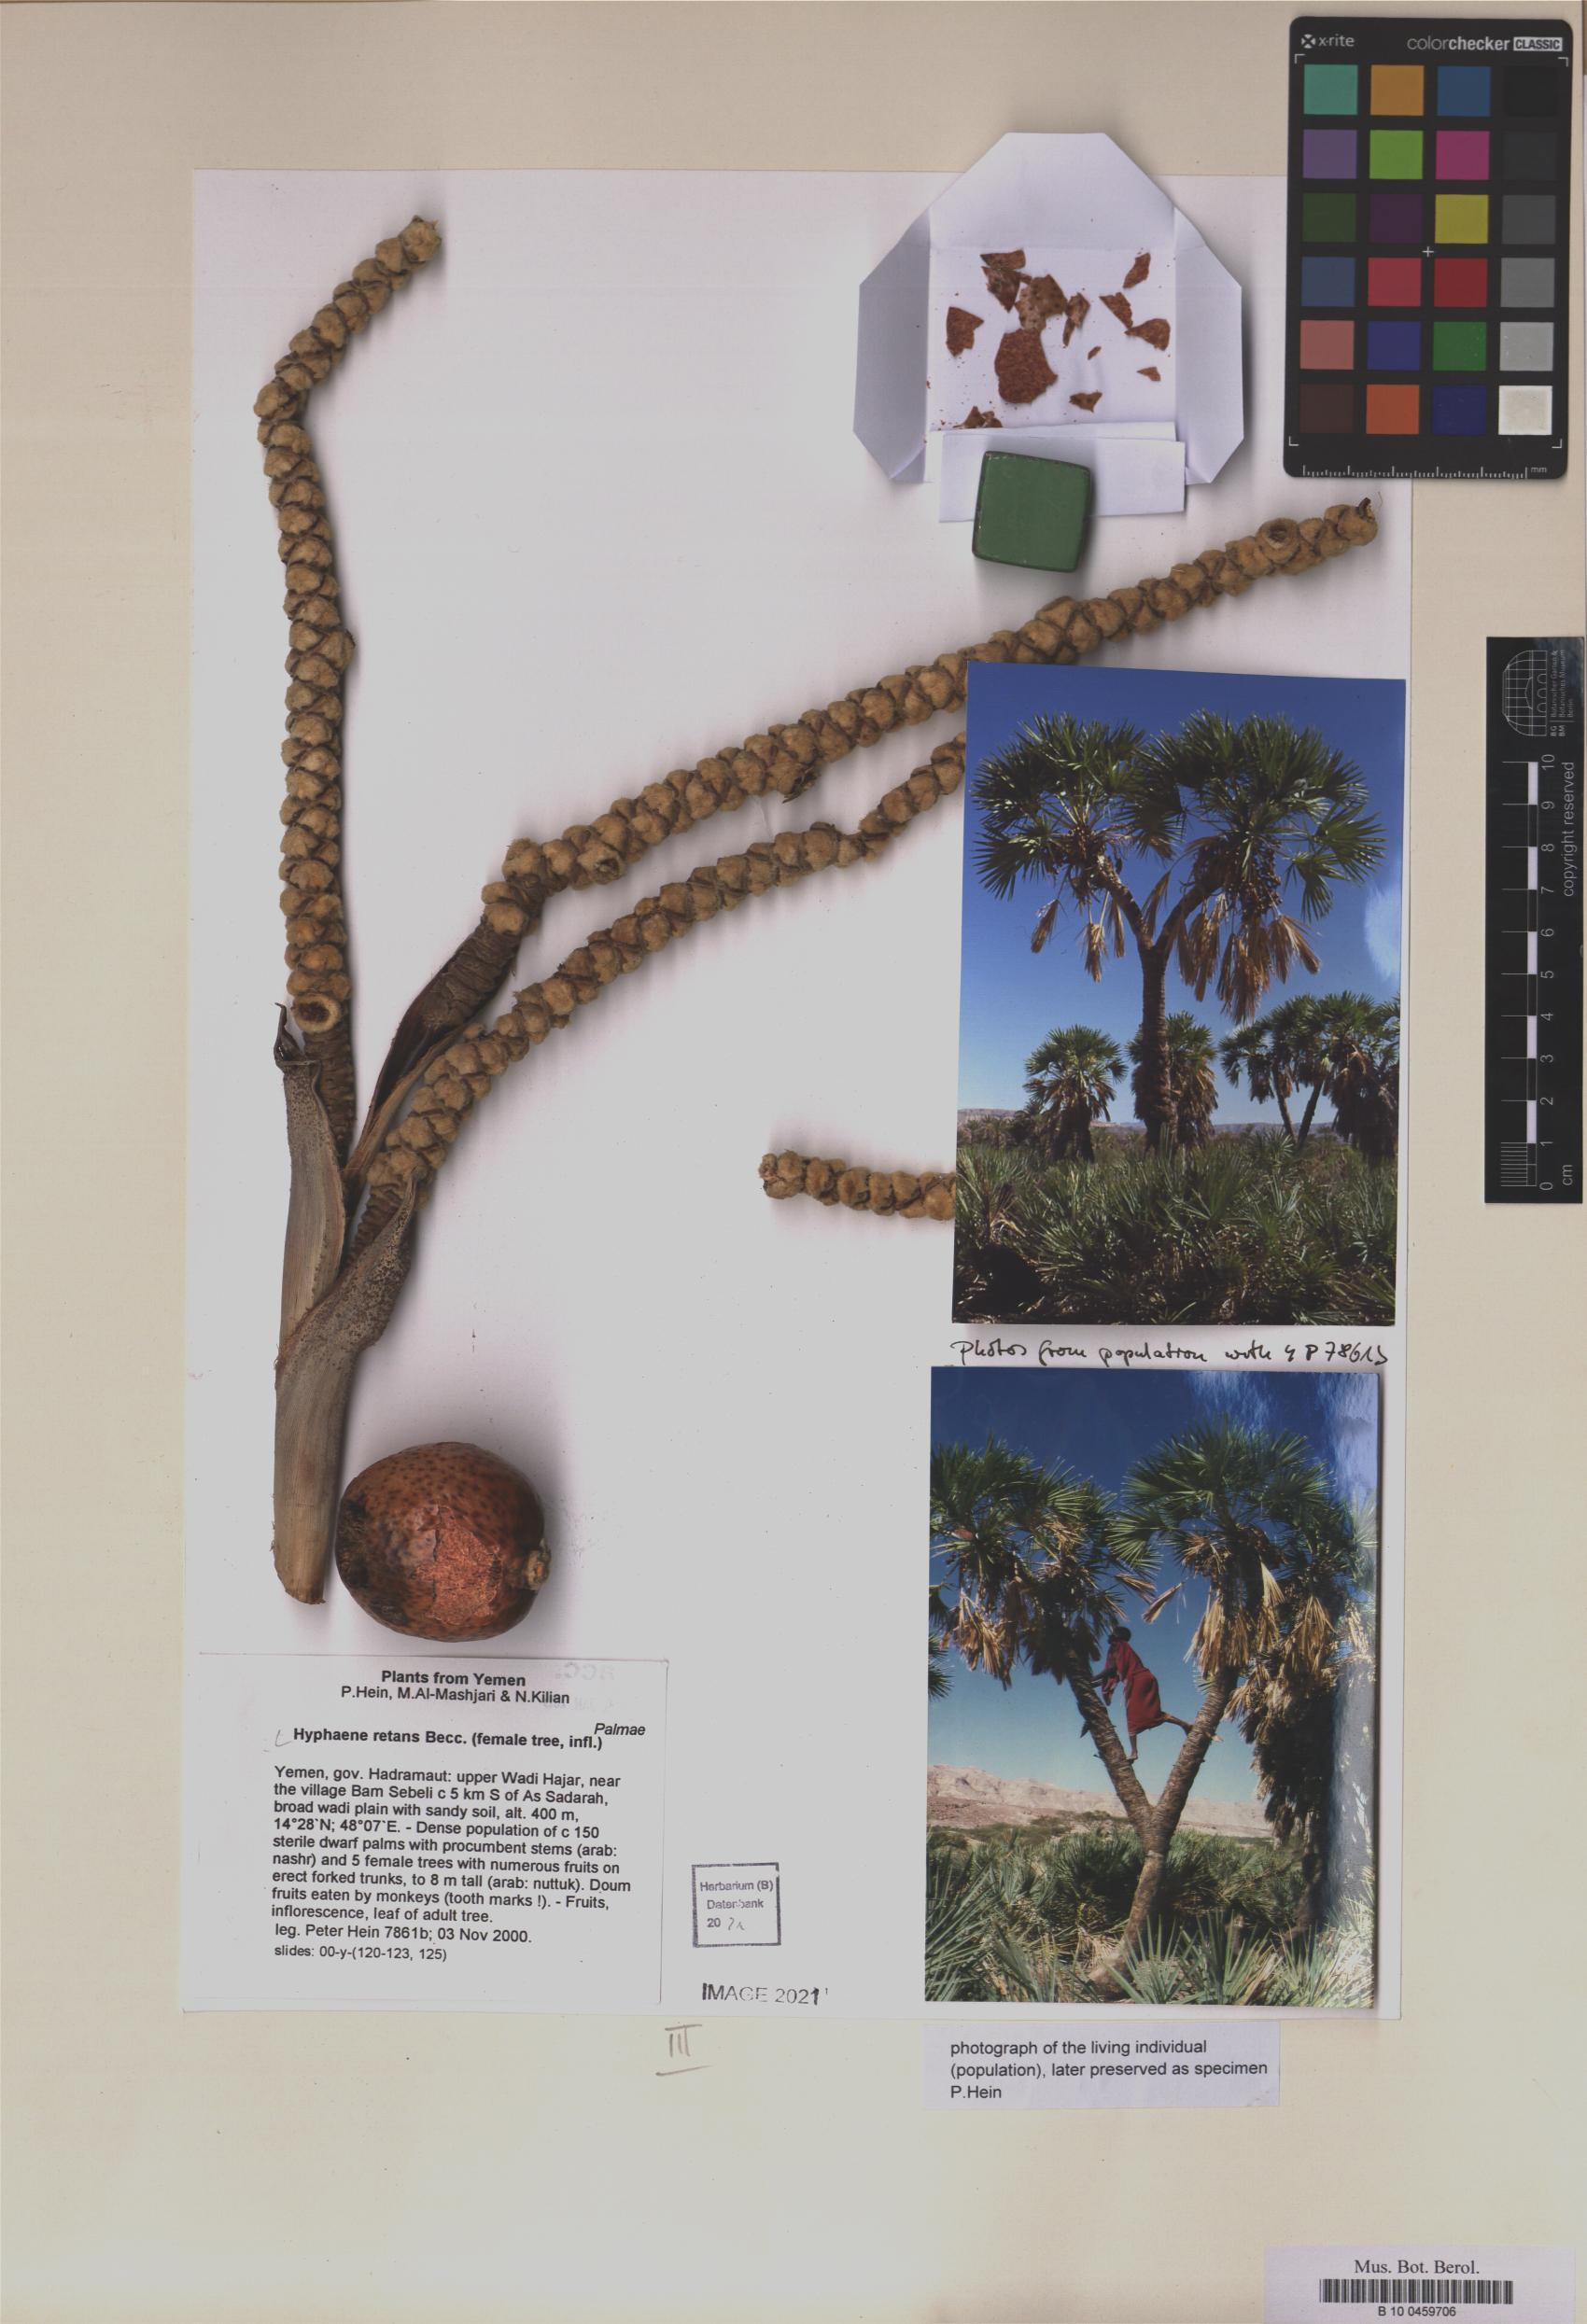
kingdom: Plantae
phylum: Tracheophyta
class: Liliopsida
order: Arecales
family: Arecaceae
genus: Hyphaene
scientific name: Hyphaene reptans
